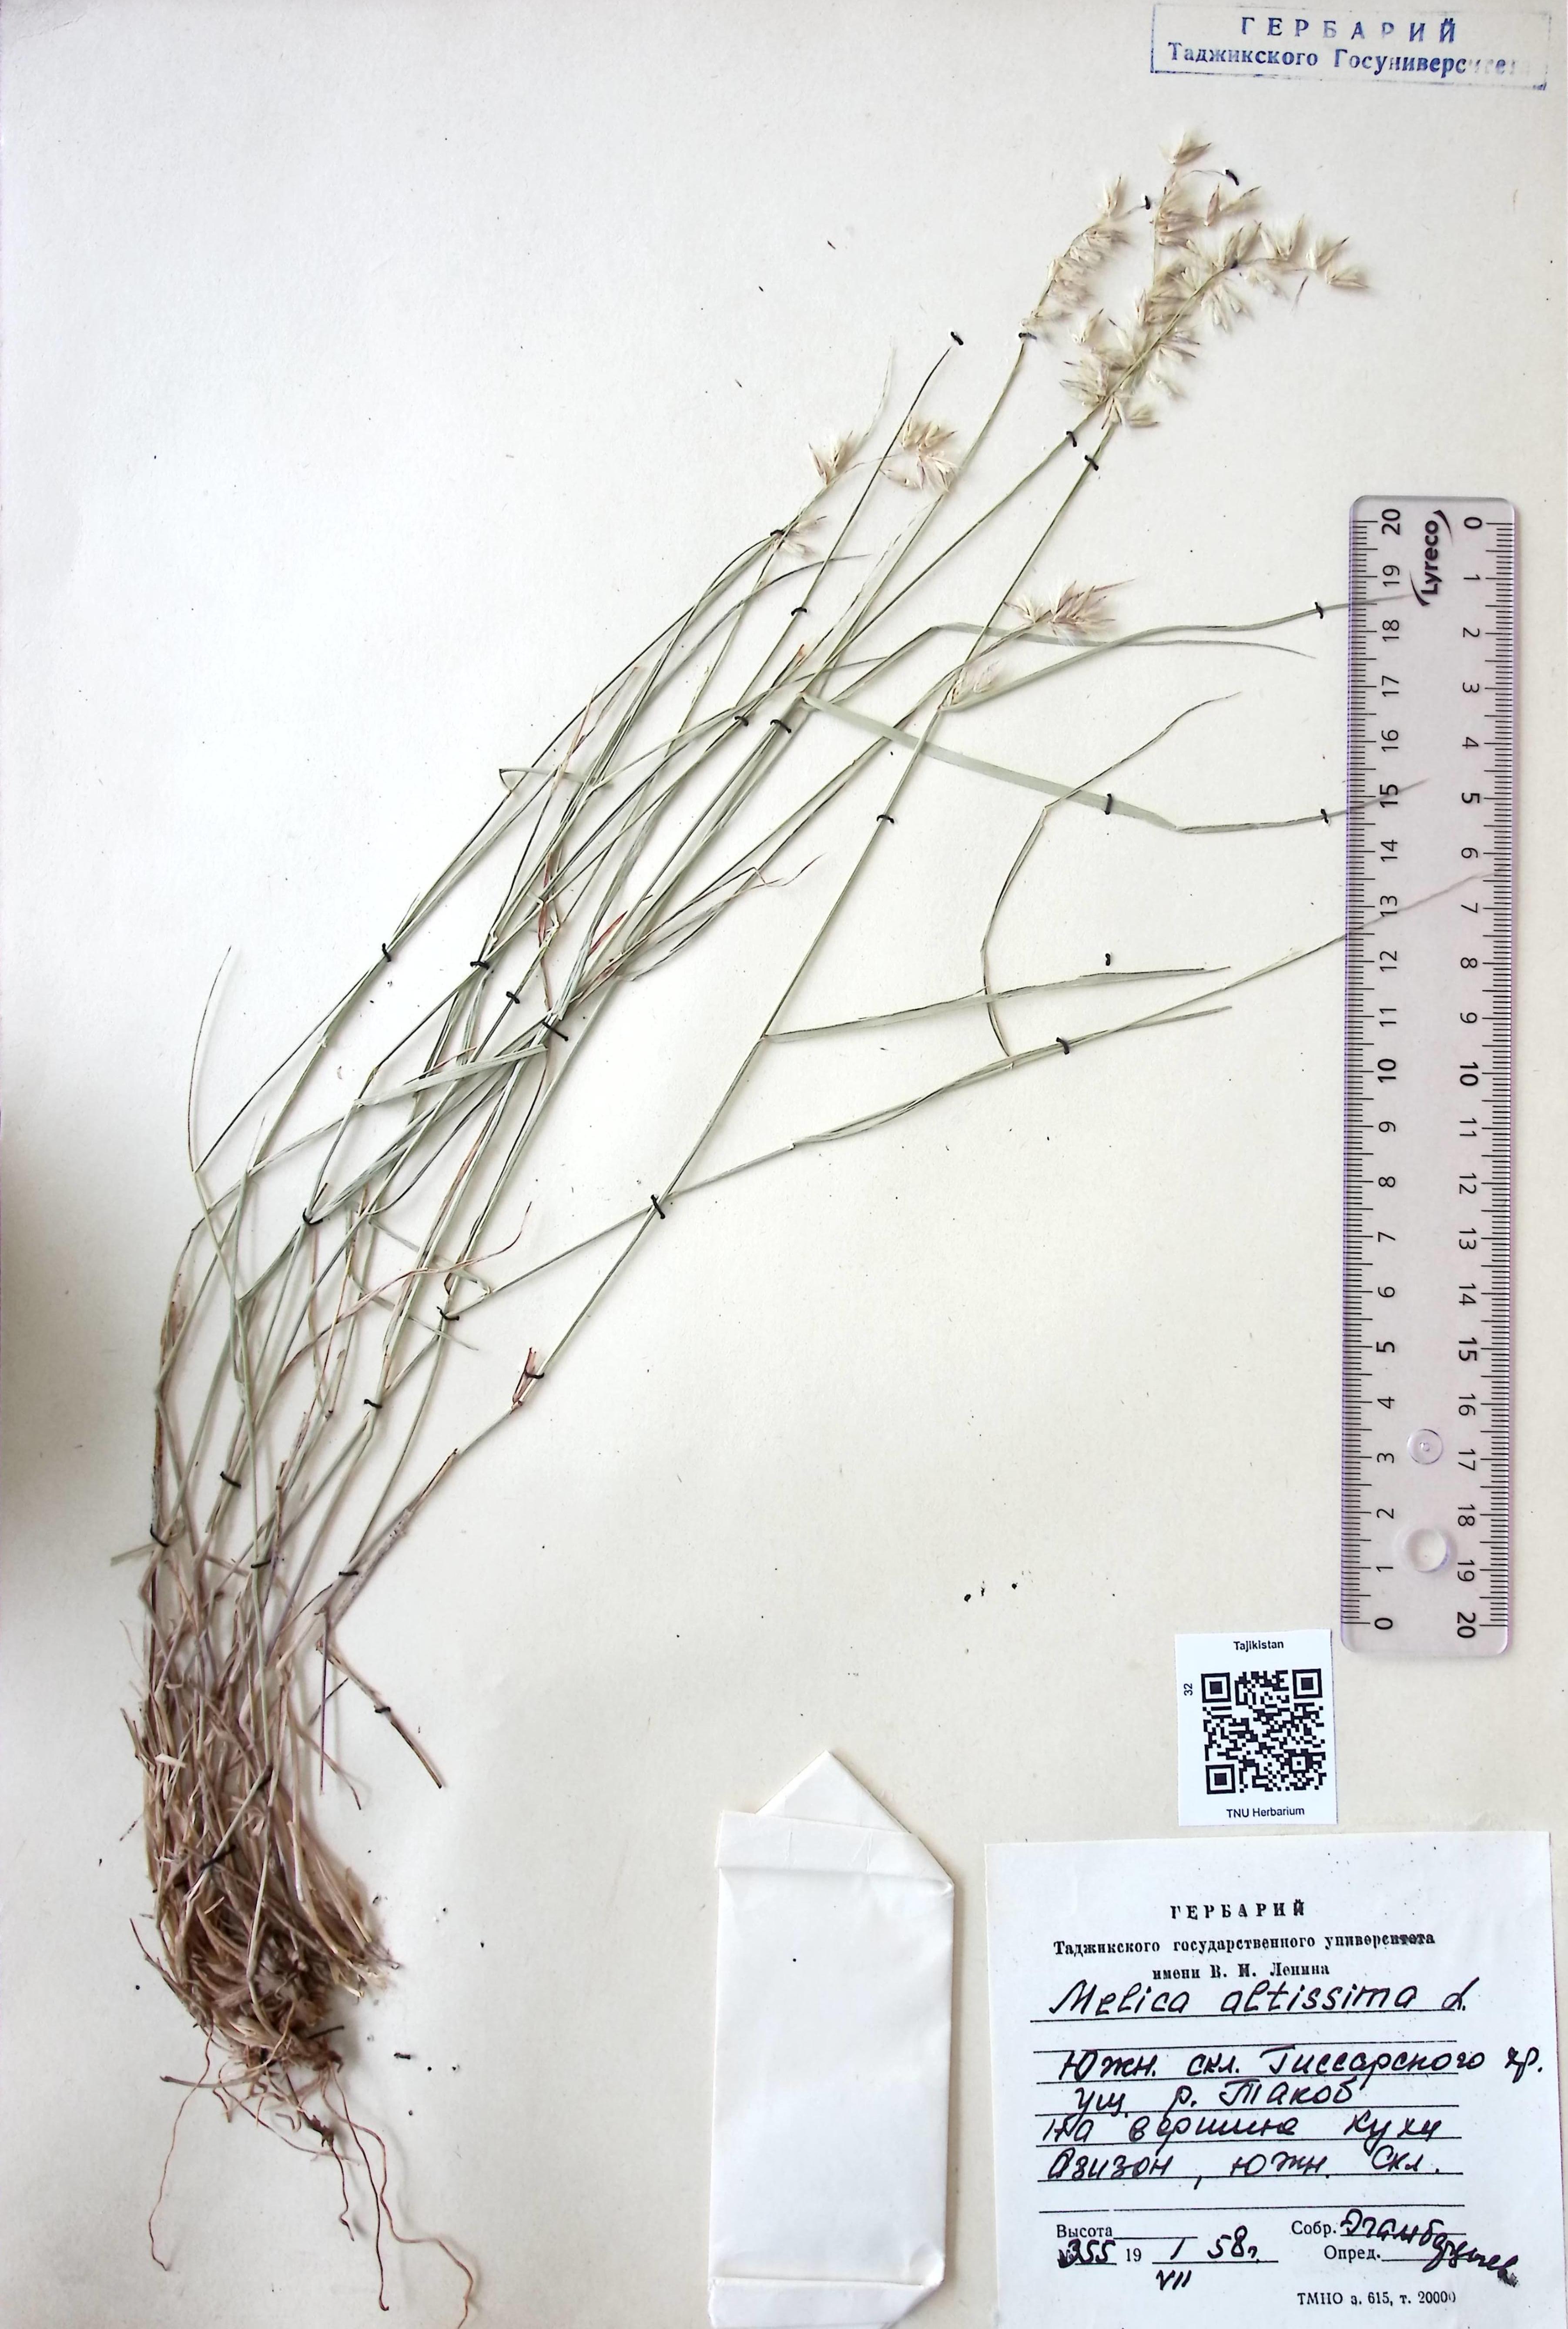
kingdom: Plantae
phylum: Tracheophyta
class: Liliopsida
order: Poales
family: Poaceae
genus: Melica
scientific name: Melica altissima
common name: Siberian melicgrass
